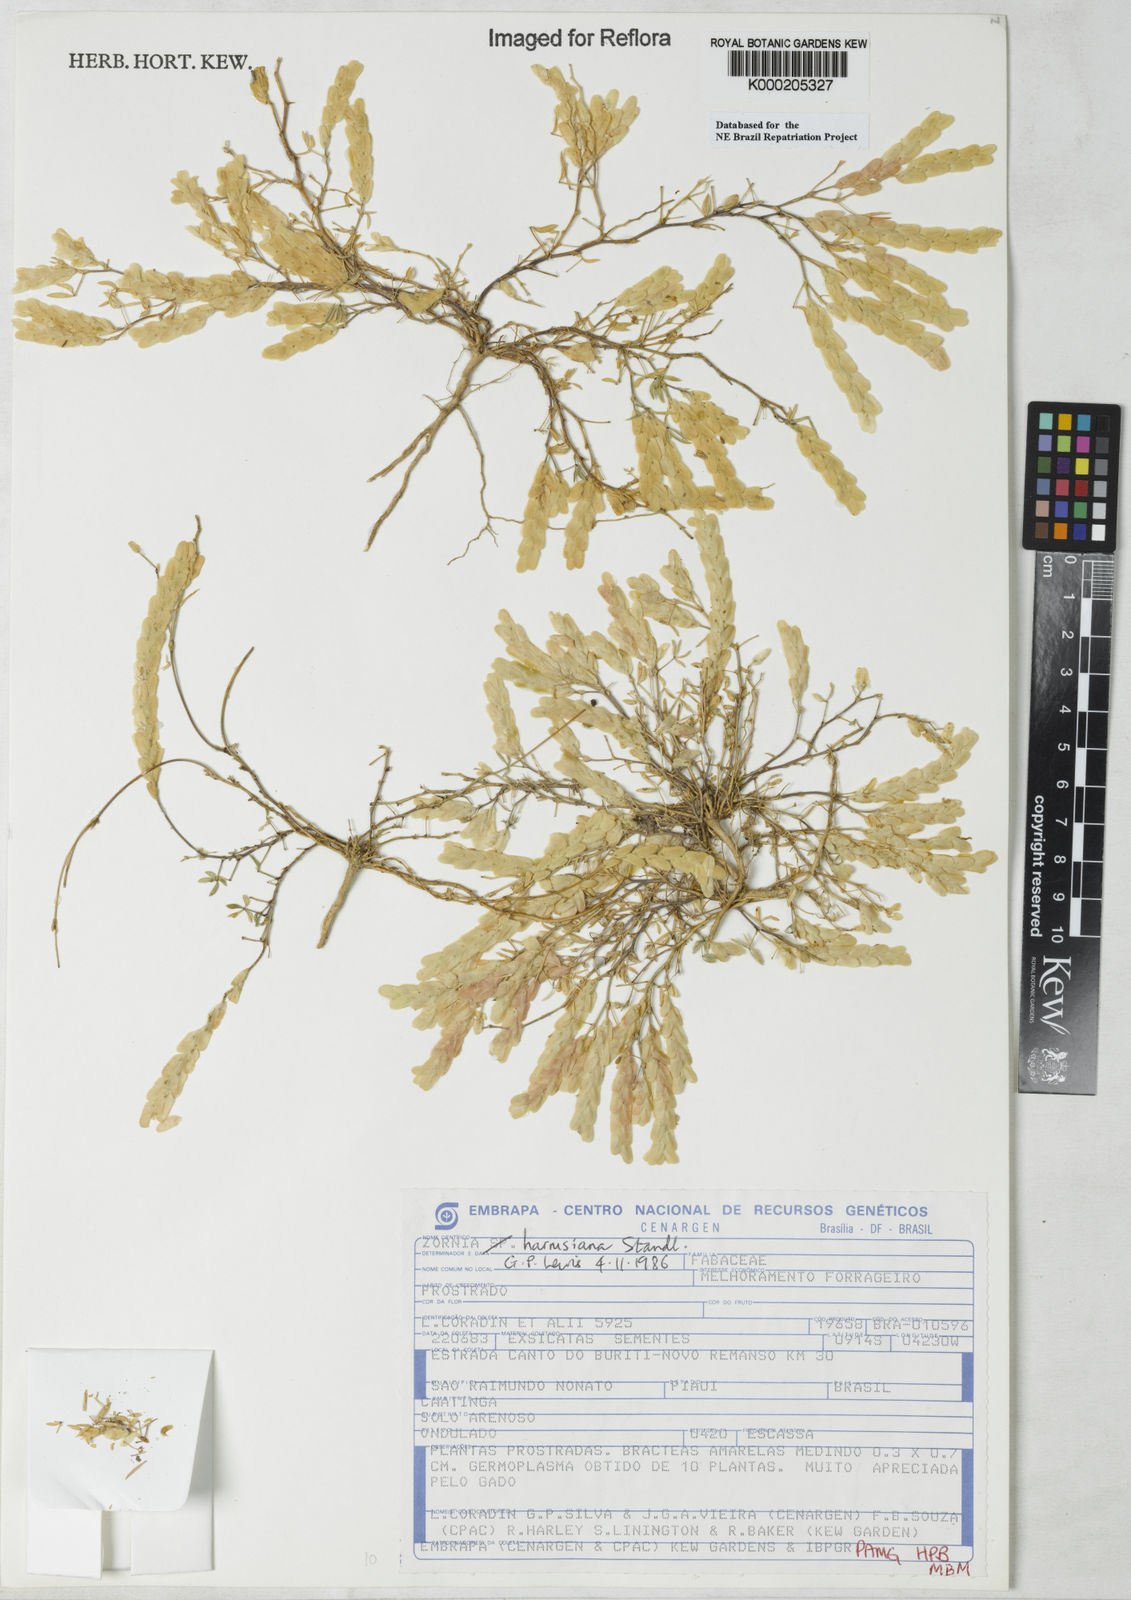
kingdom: Plantae
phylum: Tracheophyta
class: Magnoliopsida
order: Fabales
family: Fabaceae
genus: Zornia
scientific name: Zornia harmsiana
